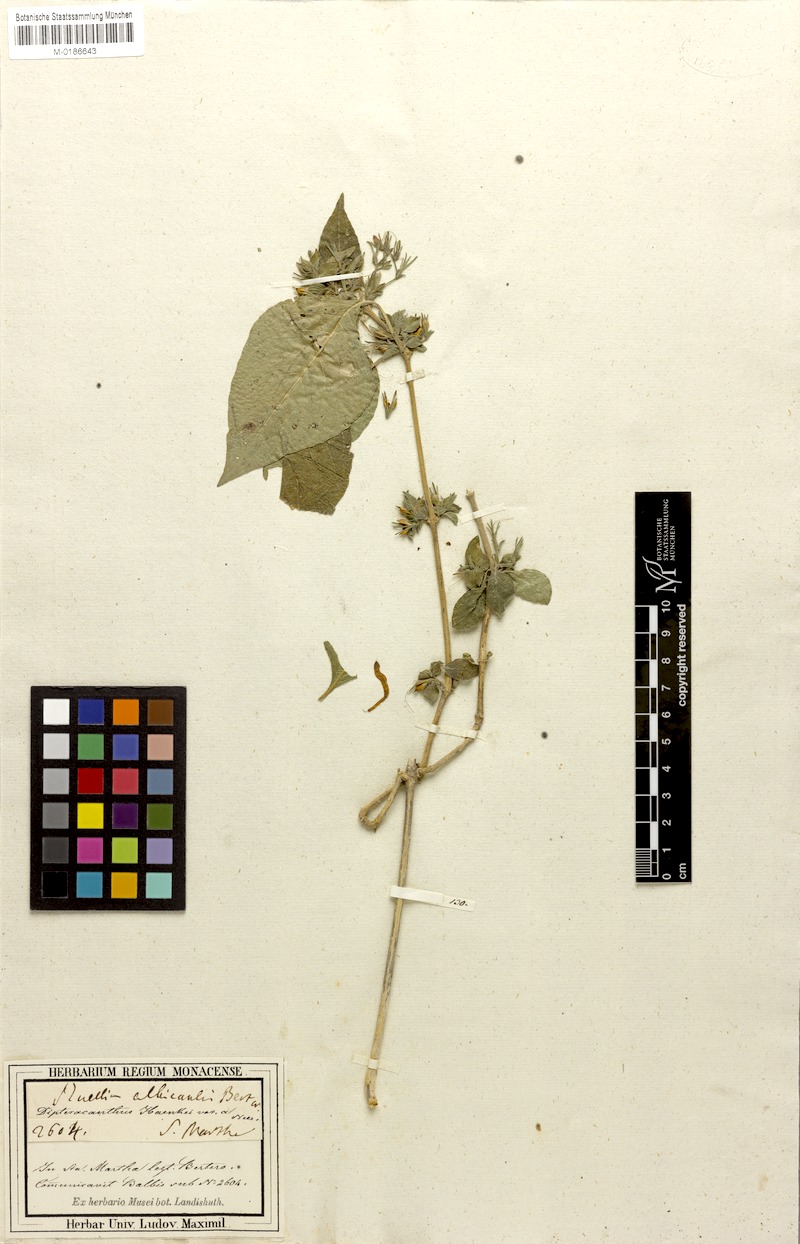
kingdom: Plantae
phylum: Tracheophyta
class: Magnoliopsida
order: Lamiales
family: Acanthaceae
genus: Ruellia
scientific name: Ruellia inundata
